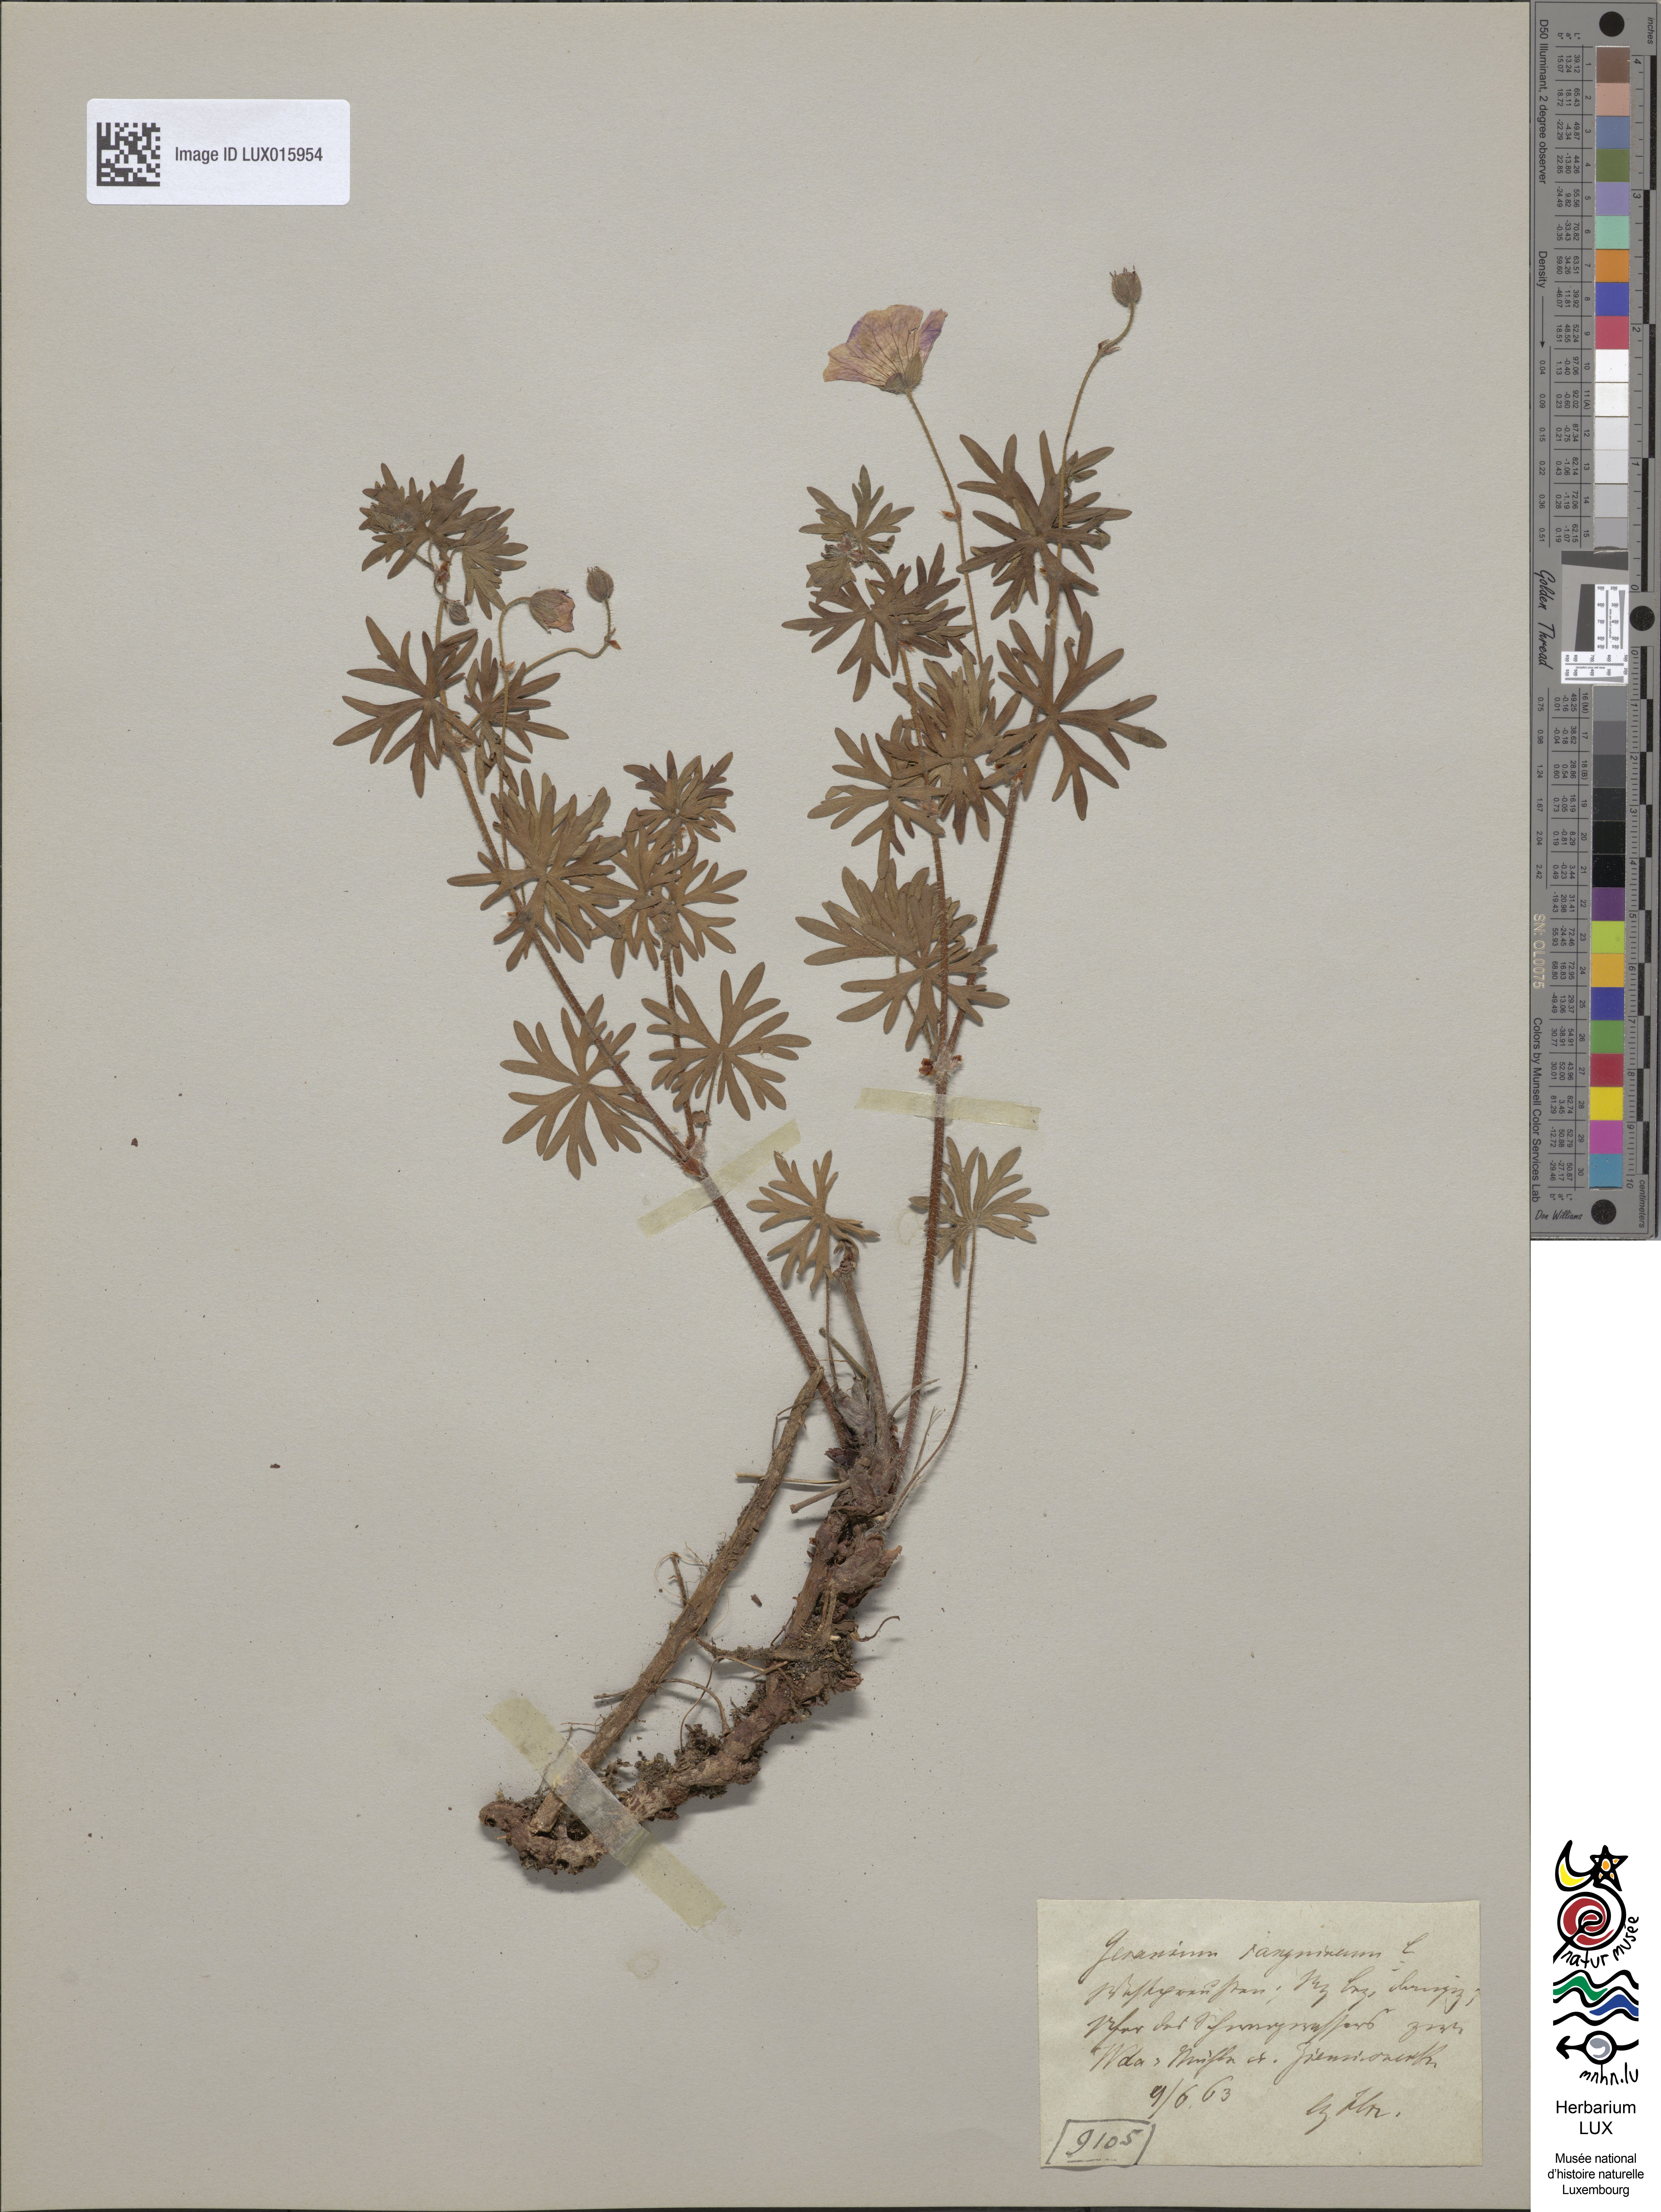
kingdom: Plantae
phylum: Tracheophyta
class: Magnoliopsida
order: Geraniales
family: Geraniaceae
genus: Geranium
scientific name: Geranium sanguineum
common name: Bloody crane's-bill
